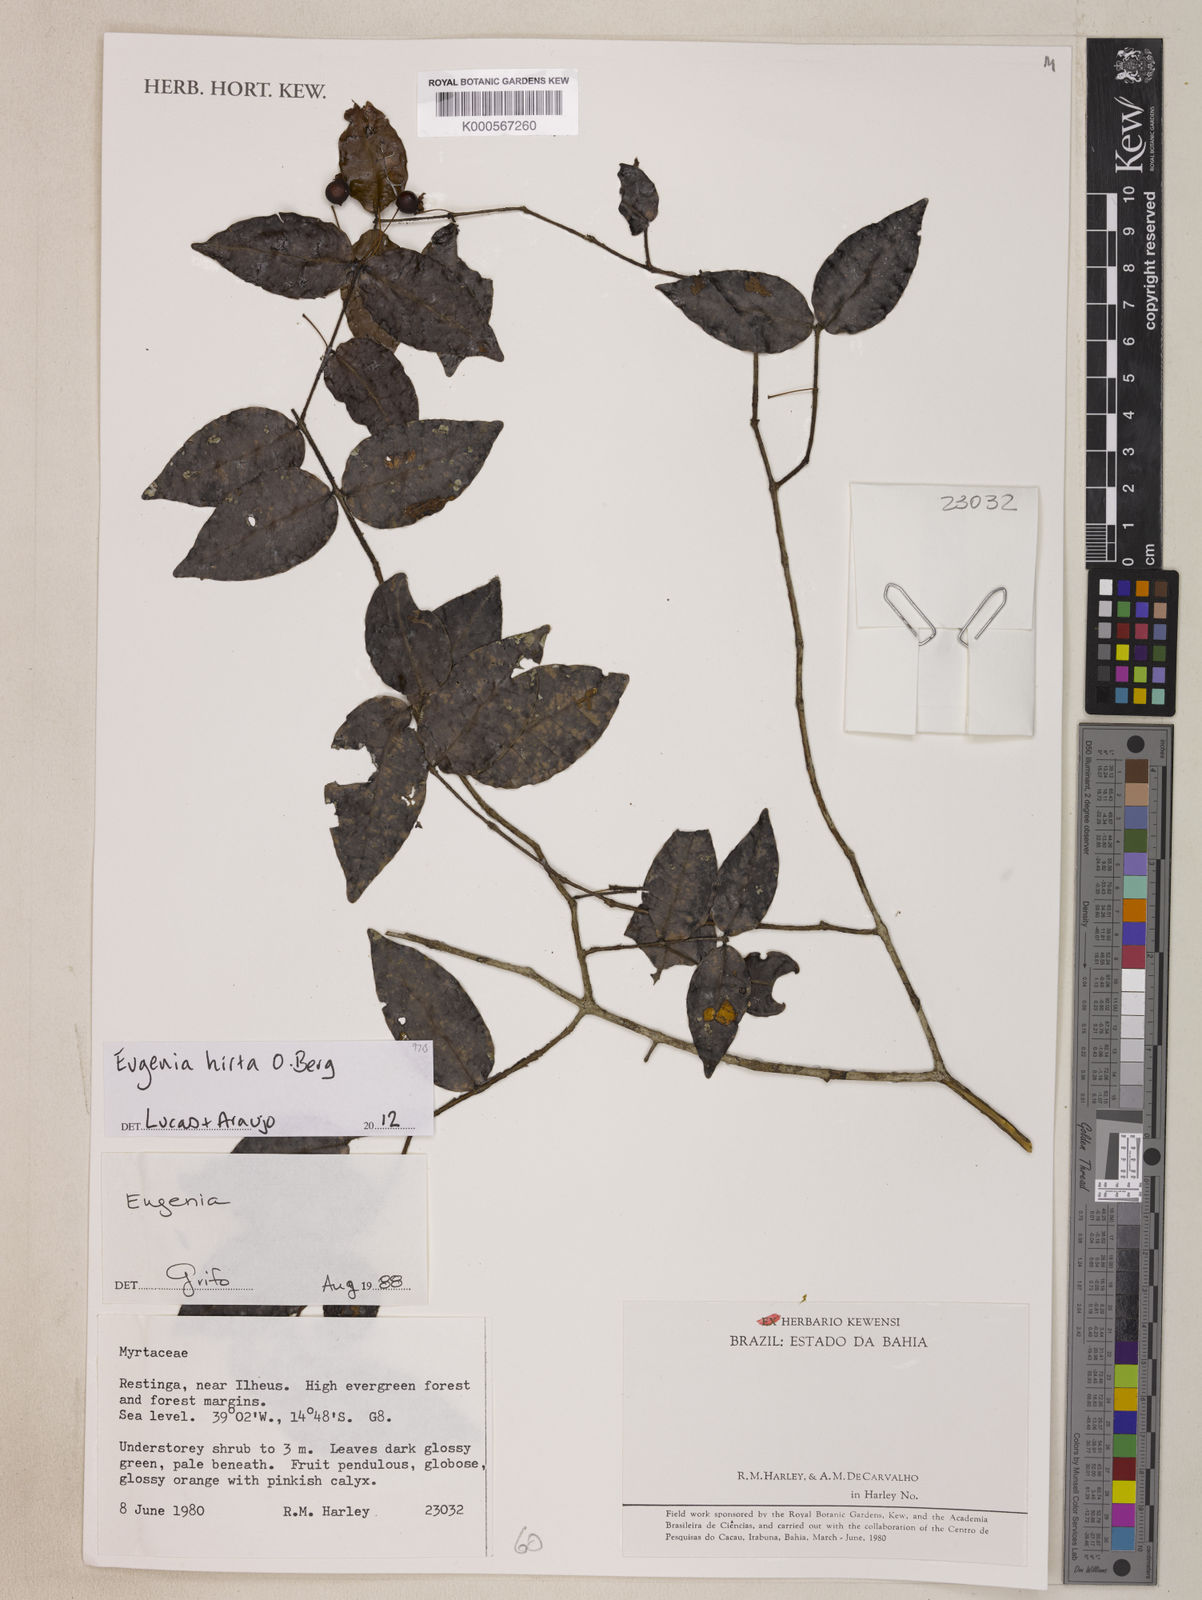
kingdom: Plantae
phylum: Tracheophyta
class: Magnoliopsida
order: Myrtales
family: Myrtaceae
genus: Eugenia
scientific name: Eugenia hirta
